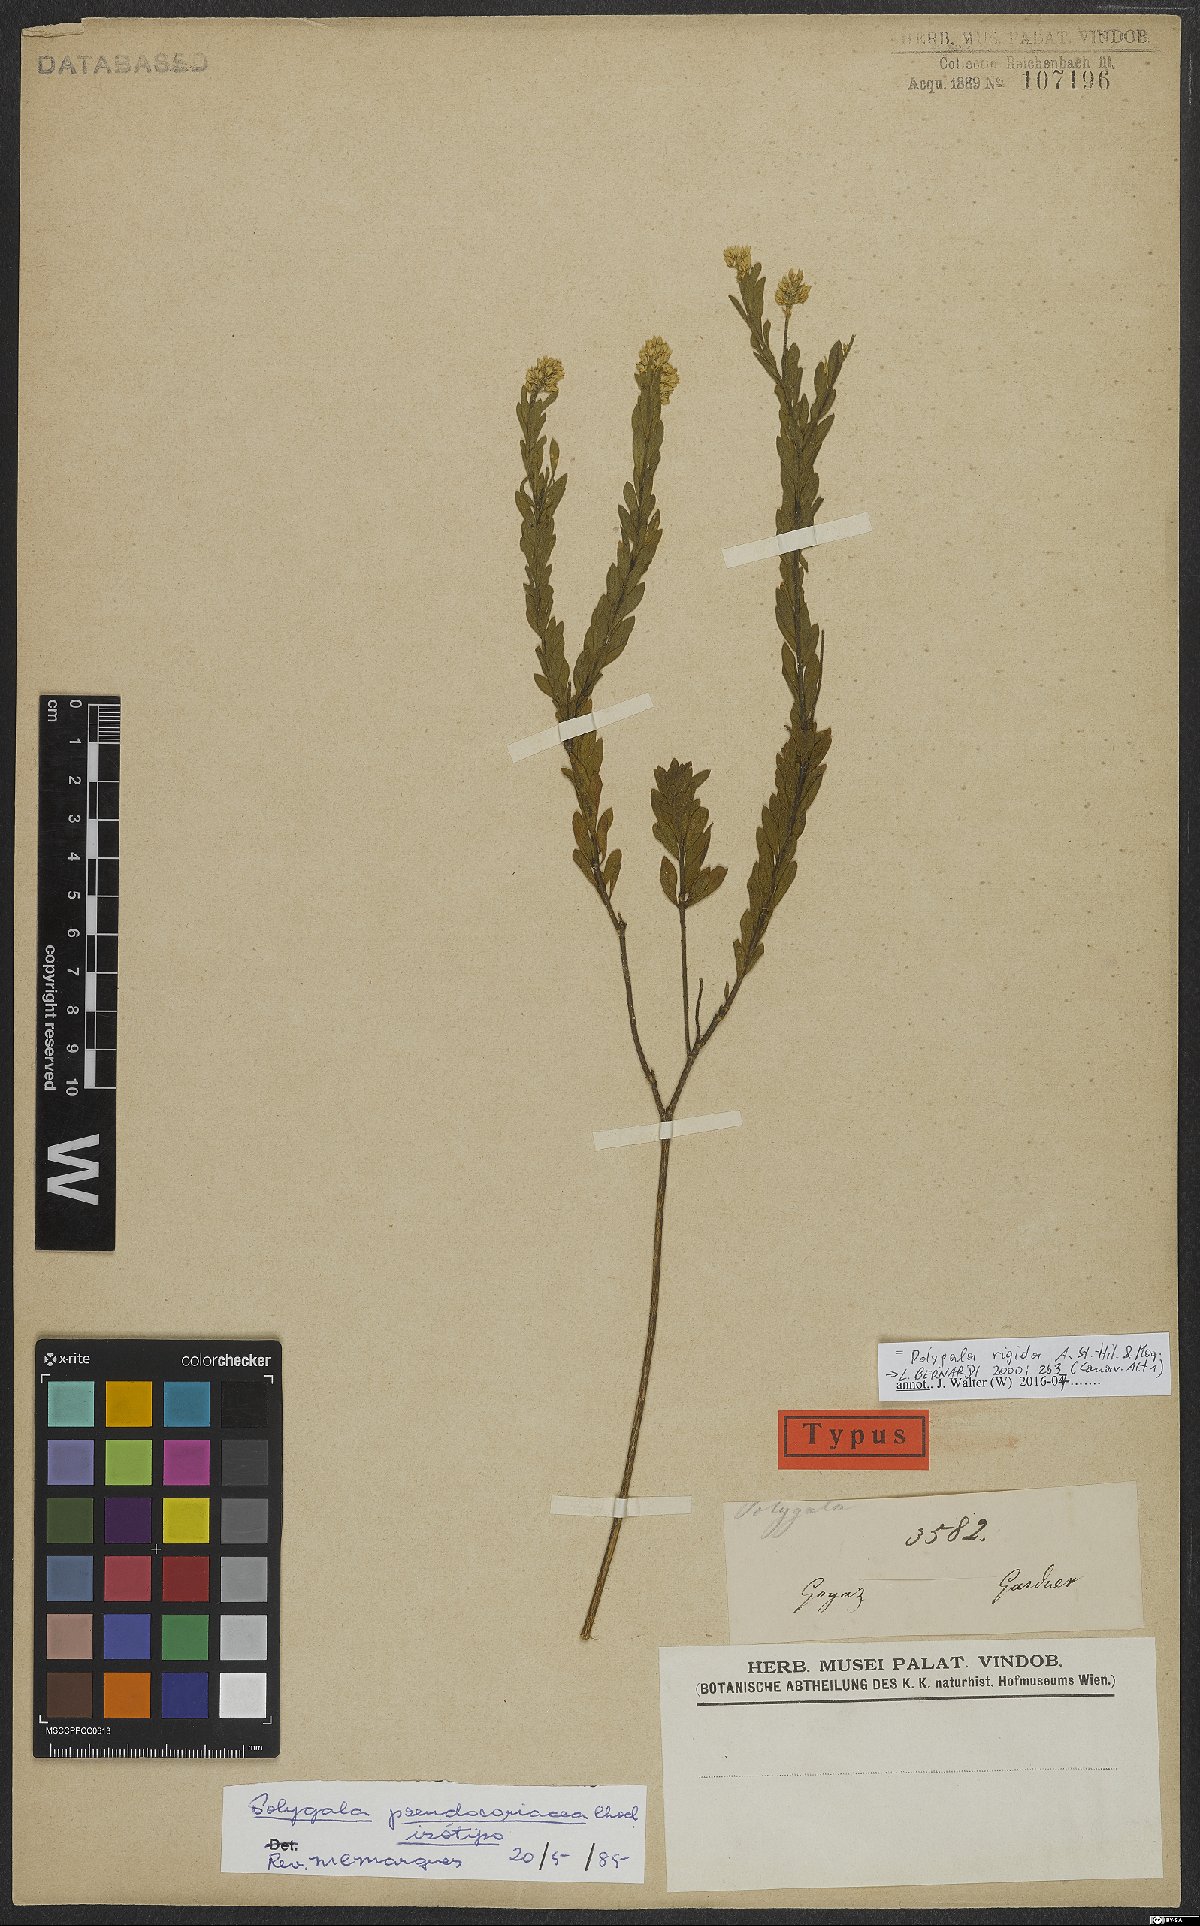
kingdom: Plantae
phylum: Tracheophyta
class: Magnoliopsida
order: Fabales
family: Polygalaceae
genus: Polygala
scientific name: Polygala rigida
